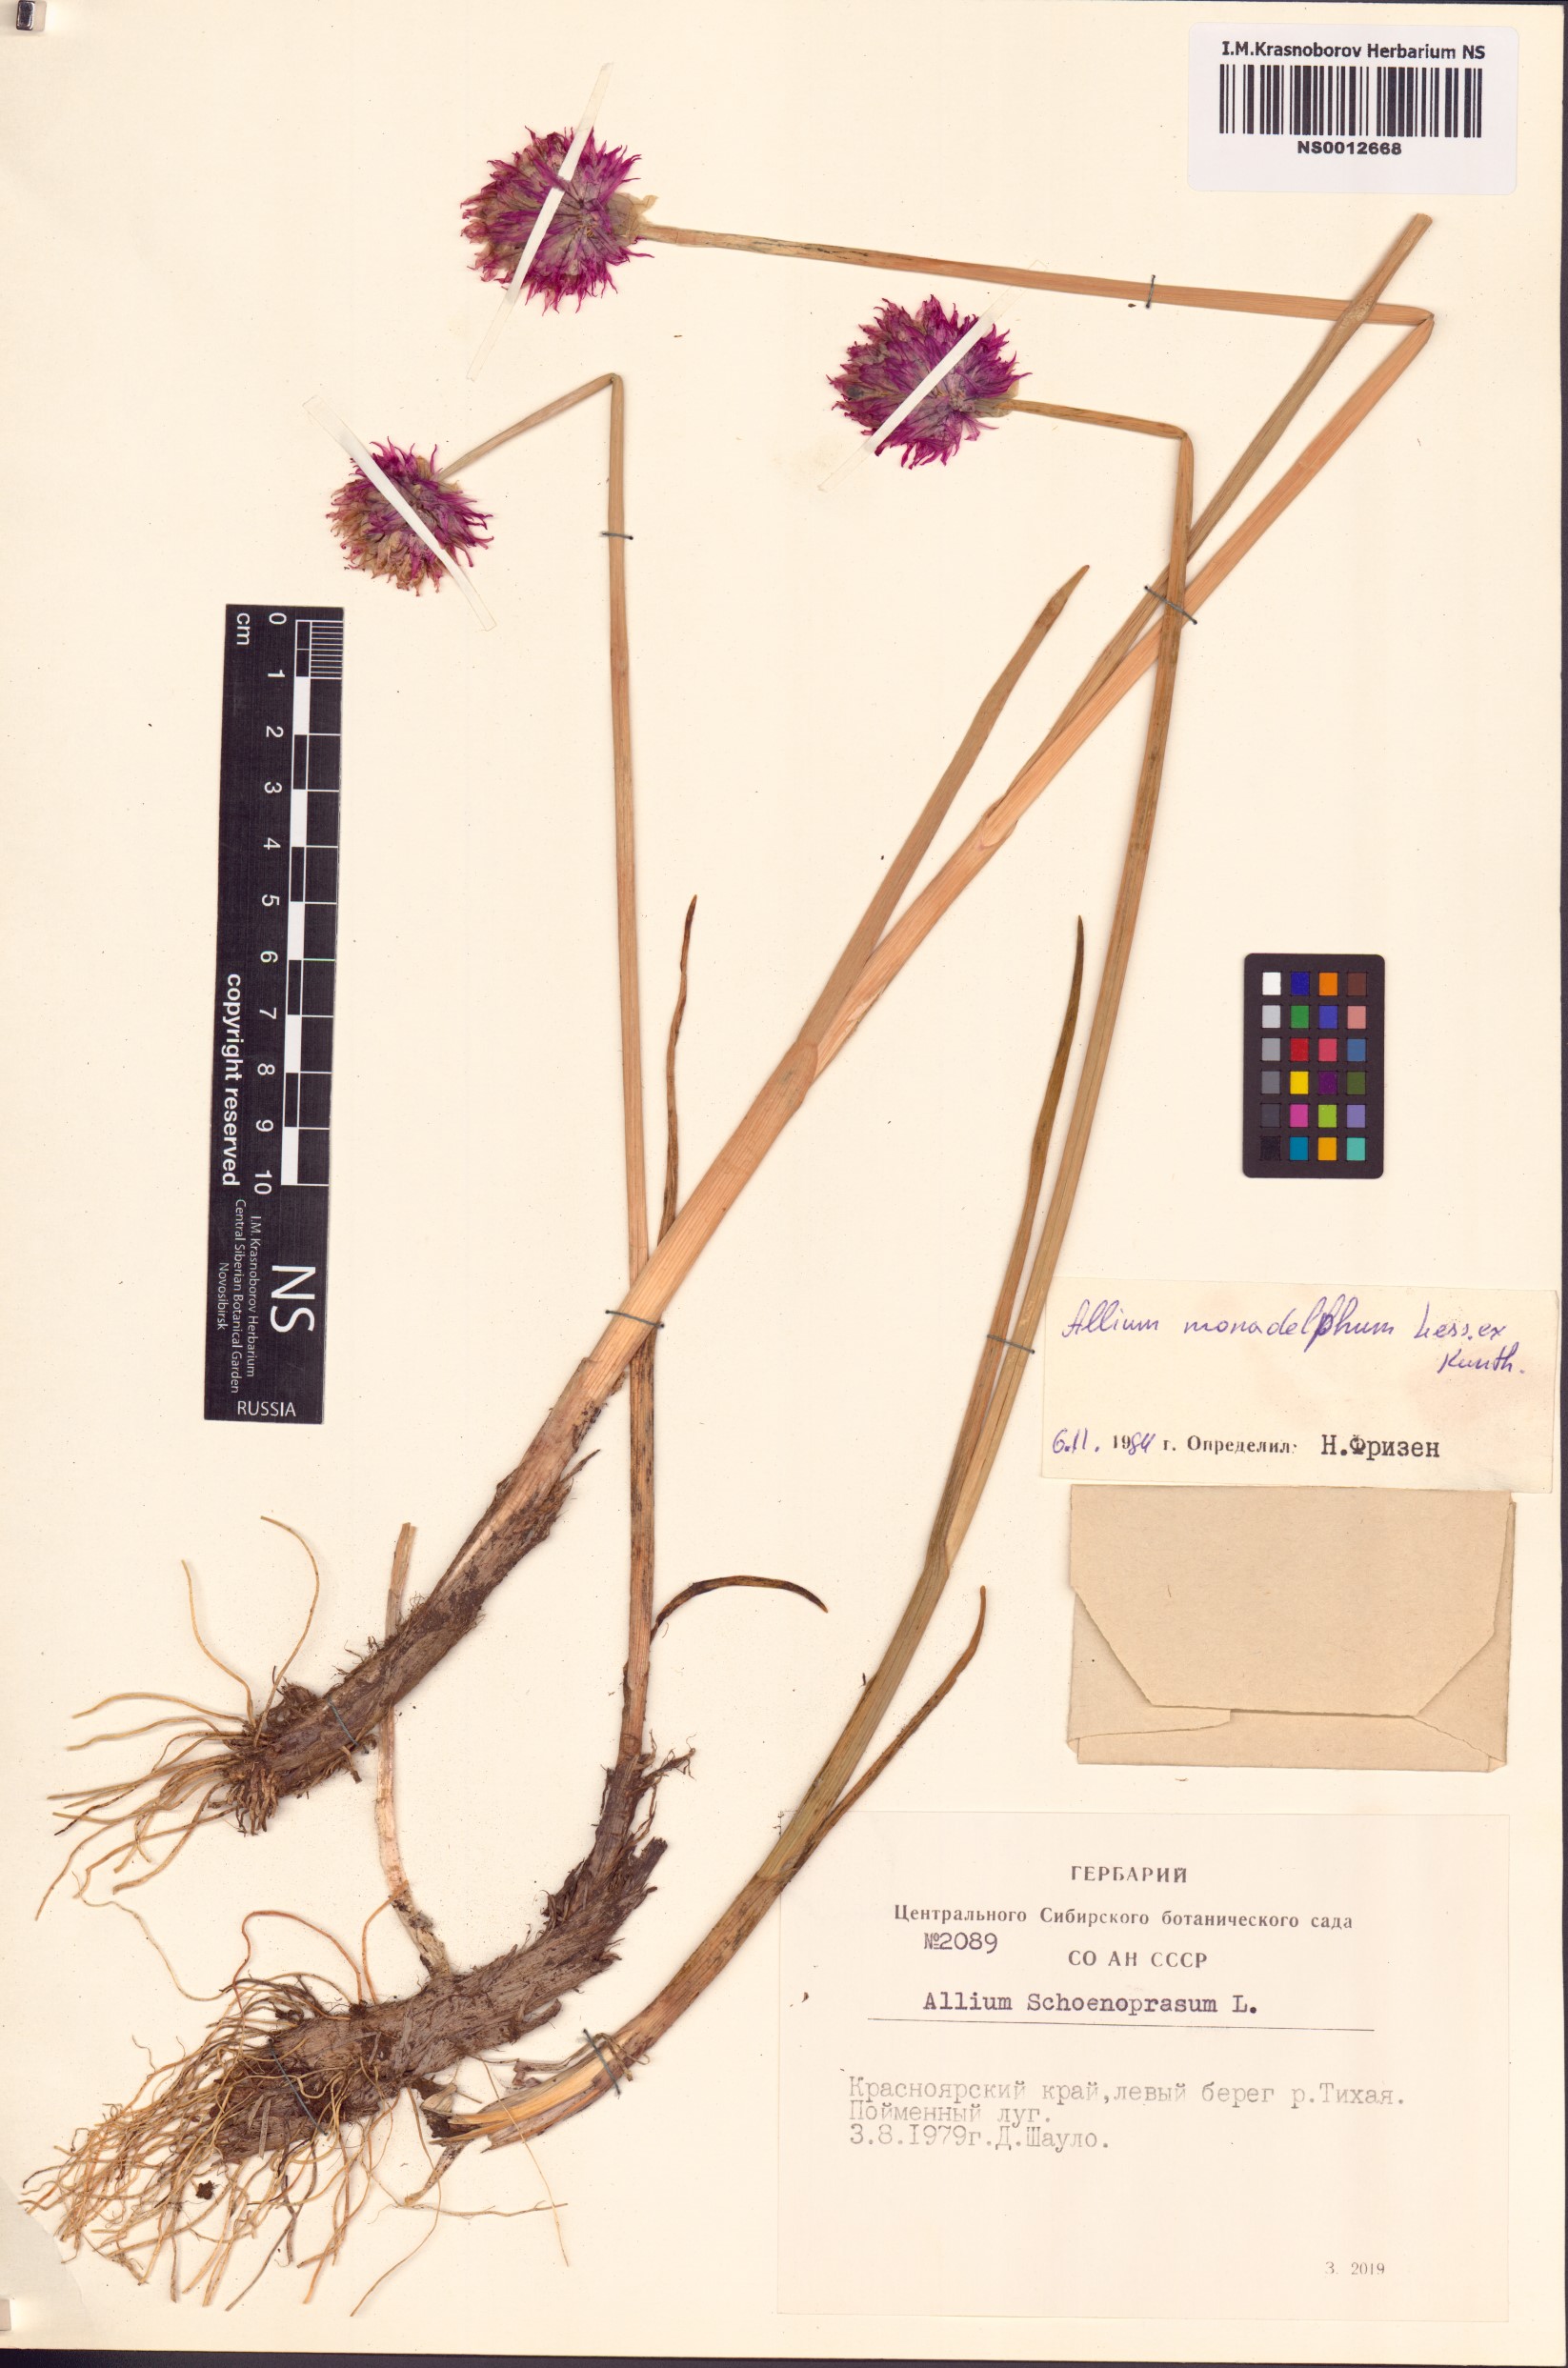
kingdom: Plantae
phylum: Tracheophyta
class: Liliopsida
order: Asparagales
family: Amaryllidaceae
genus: Allium
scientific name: Allium atrosanguineum
